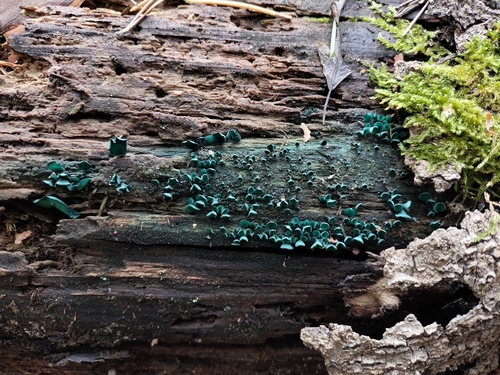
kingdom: Fungi
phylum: Ascomycota
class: Leotiomycetes
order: Helotiales
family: Chlorociboriaceae
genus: Chlorociboria
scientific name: Chlorociboria aeruginascens
